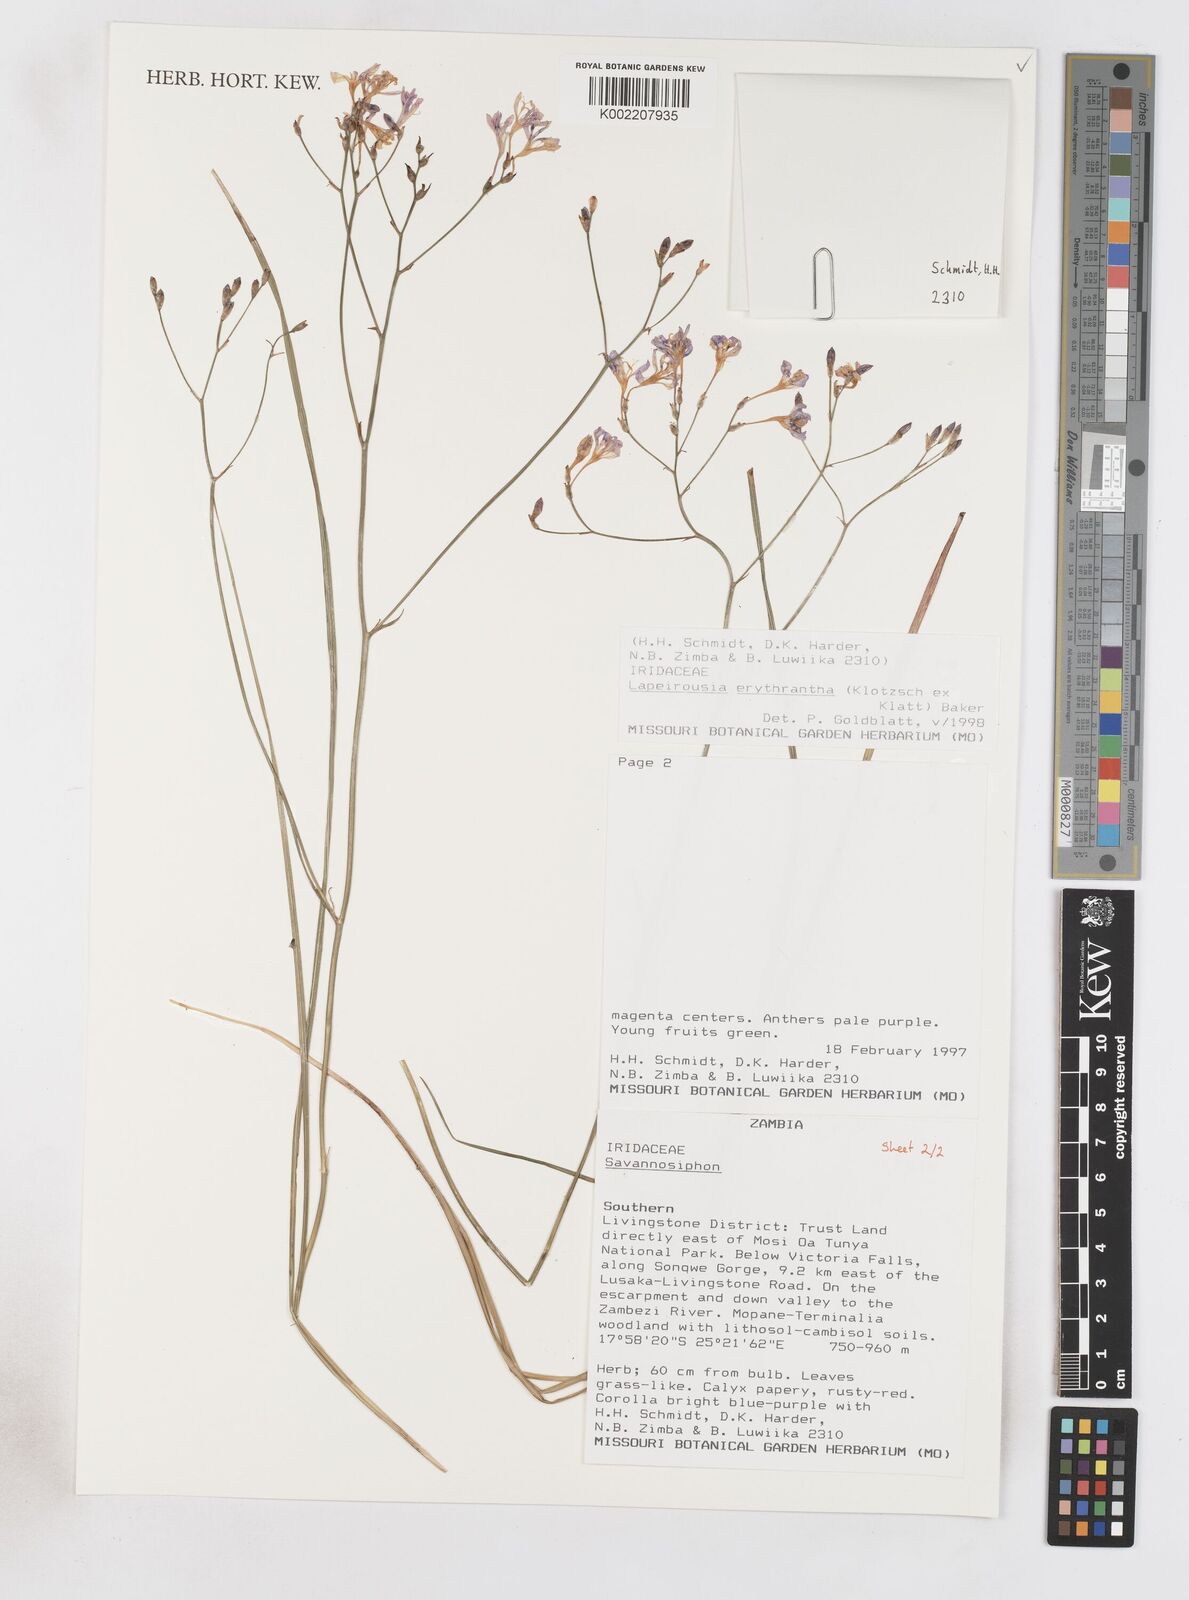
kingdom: Plantae
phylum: Tracheophyta
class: Liliopsida
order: Asparagales
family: Iridaceae
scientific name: Iridaceae
